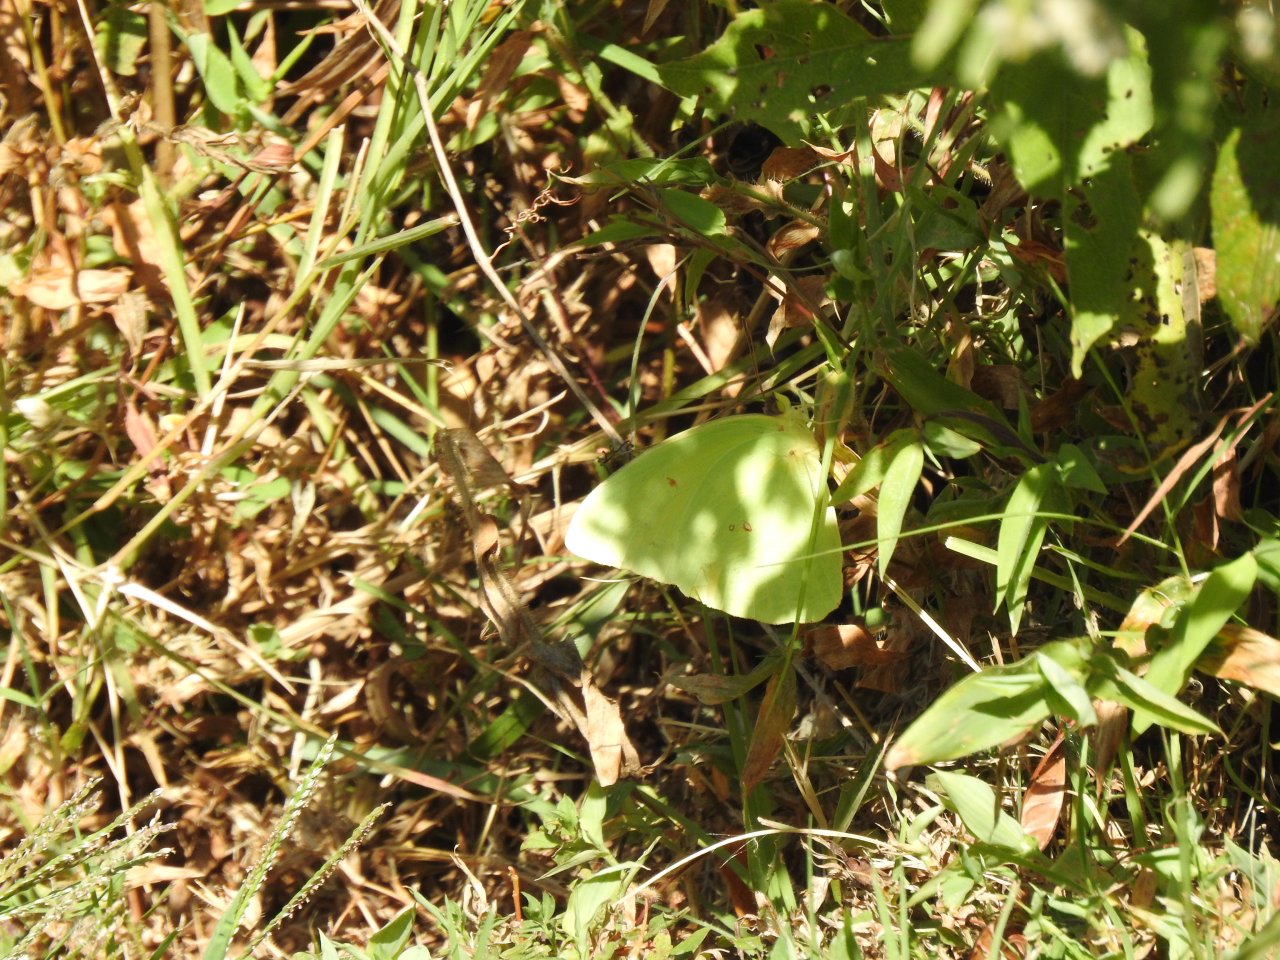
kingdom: Animalia
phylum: Arthropoda
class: Insecta
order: Lepidoptera
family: Pieridae
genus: Colias
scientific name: Colias philodice
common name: Clouded Sulphur
